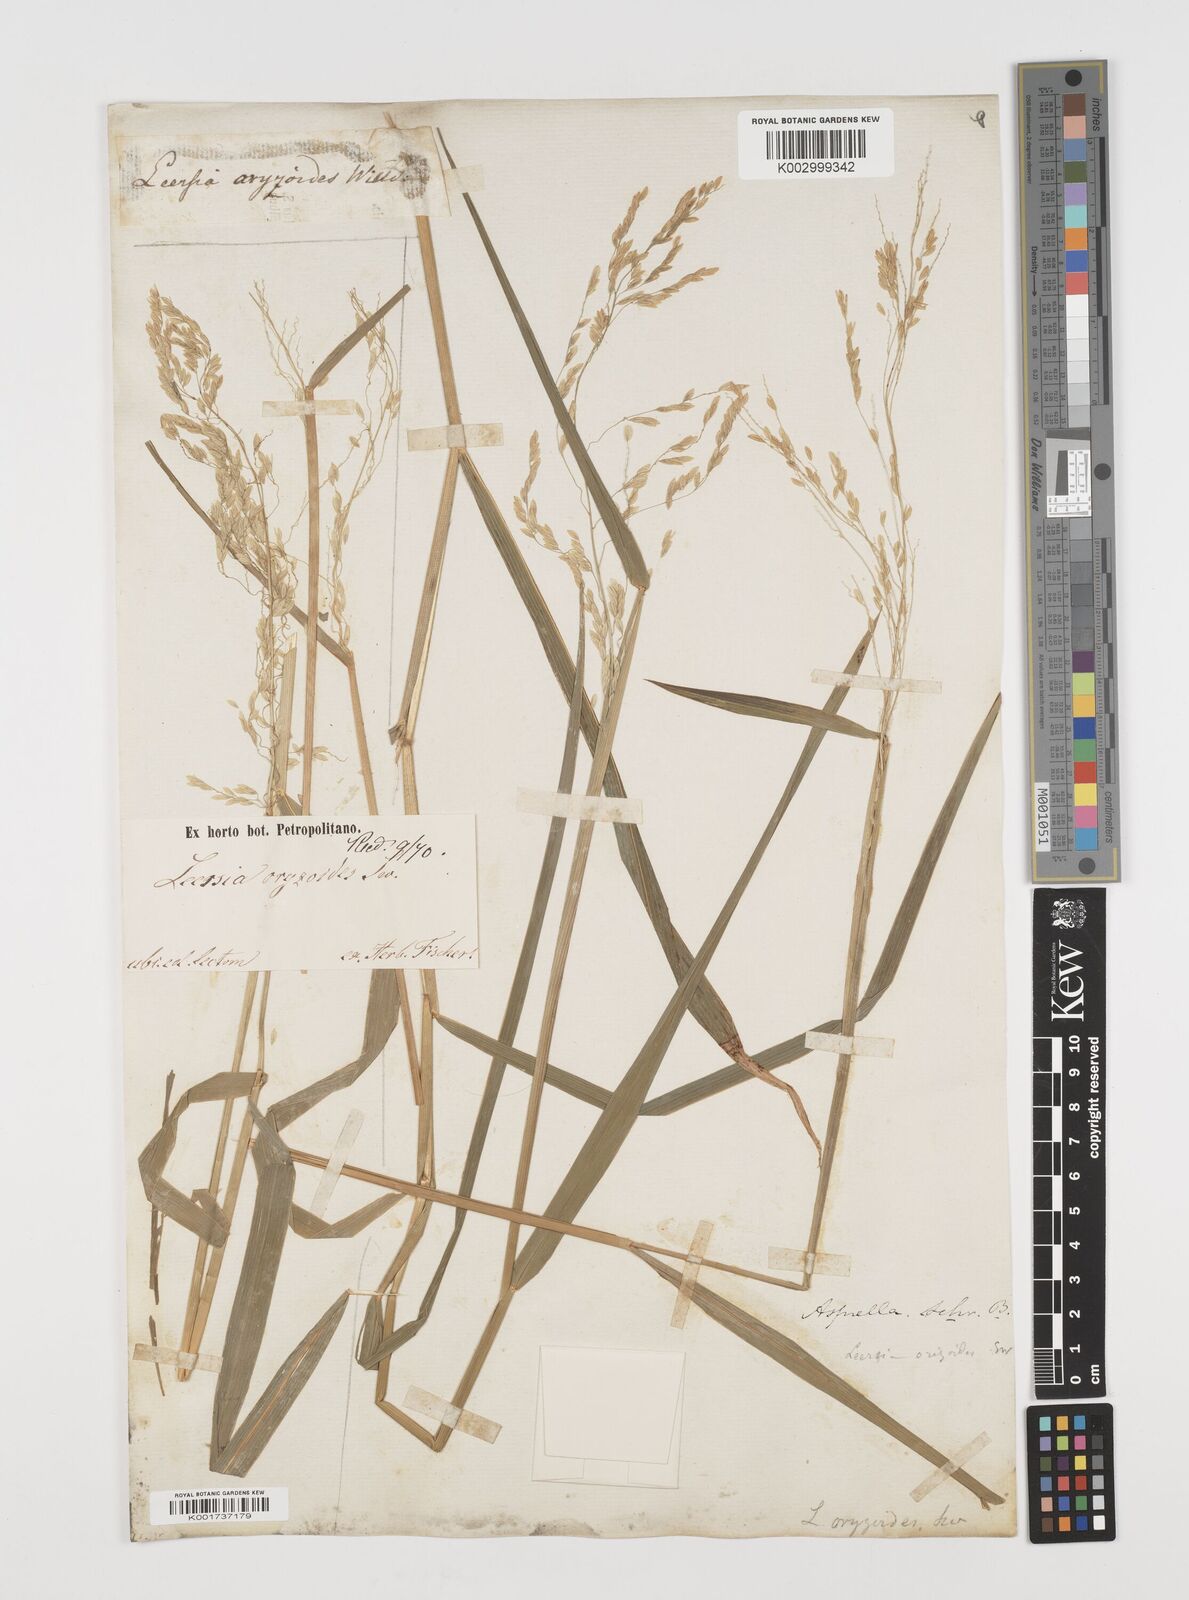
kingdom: Plantae
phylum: Tracheophyta
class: Liliopsida
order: Poales
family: Poaceae
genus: Leersia
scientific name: Leersia oryzoides
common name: Cut-grass
